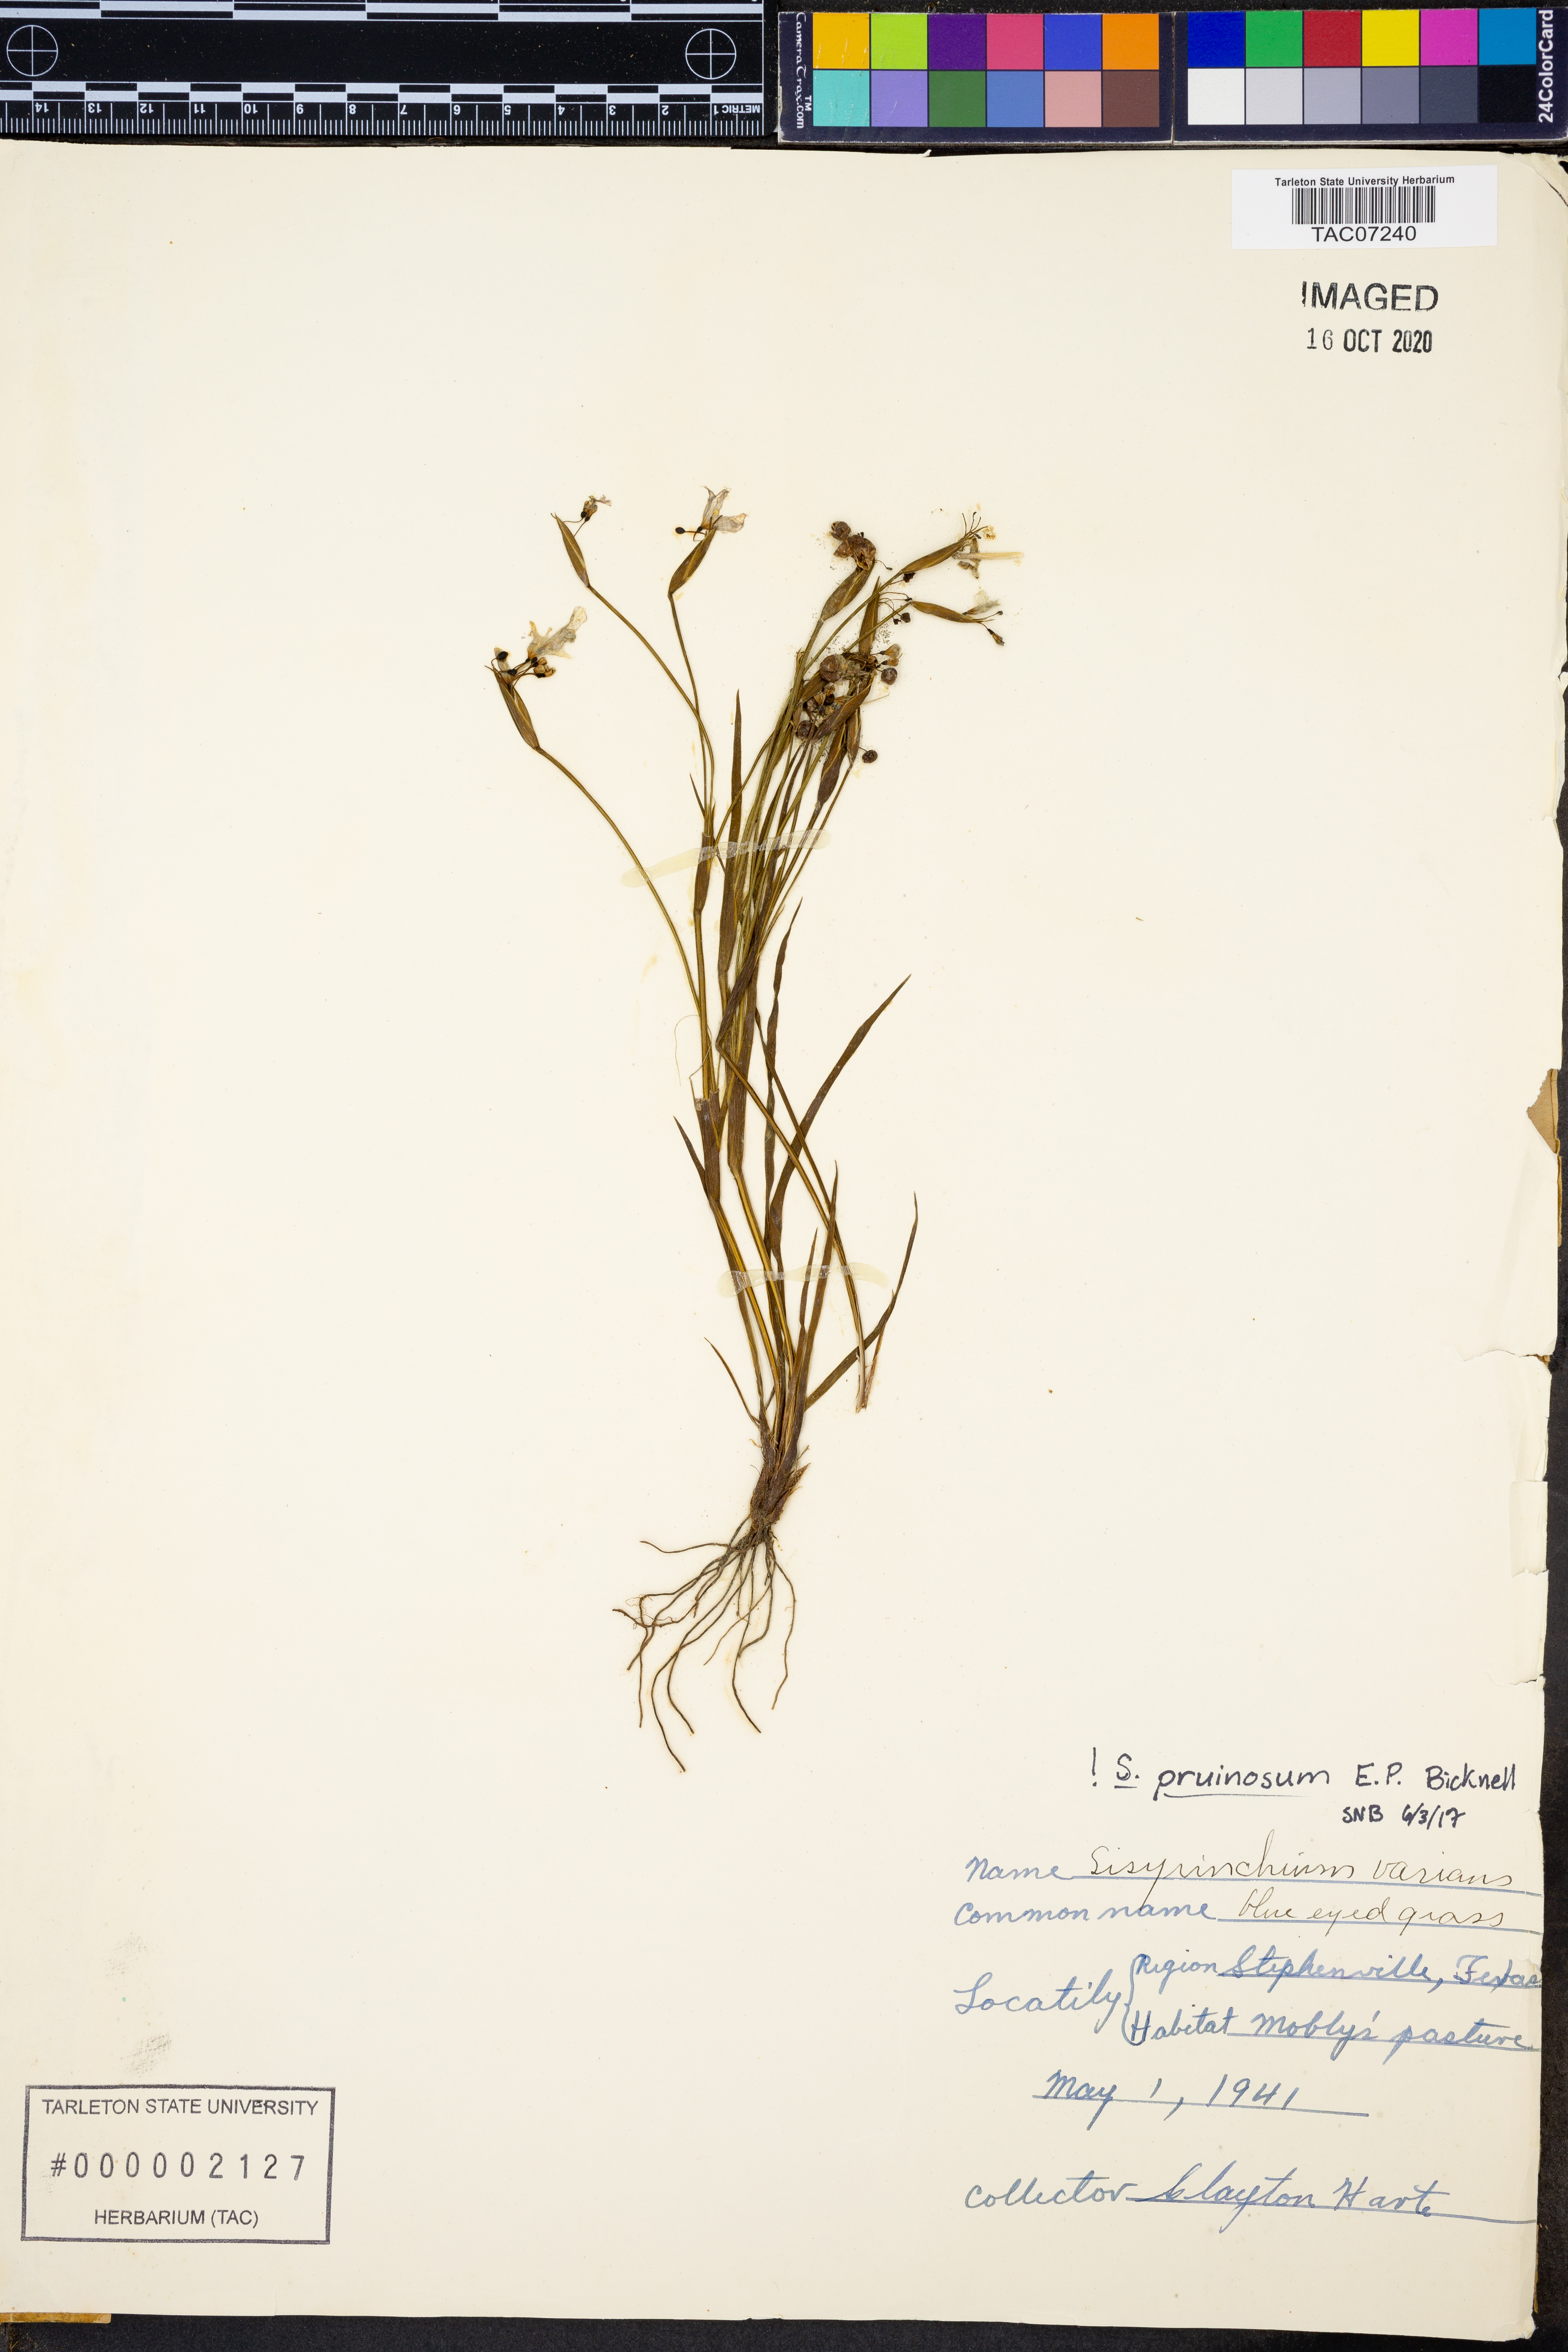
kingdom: Plantae
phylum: Tracheophyta
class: Liliopsida
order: Asparagales
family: Iridaceae
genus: Sisyrinchium
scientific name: Sisyrinchium pruinosum
